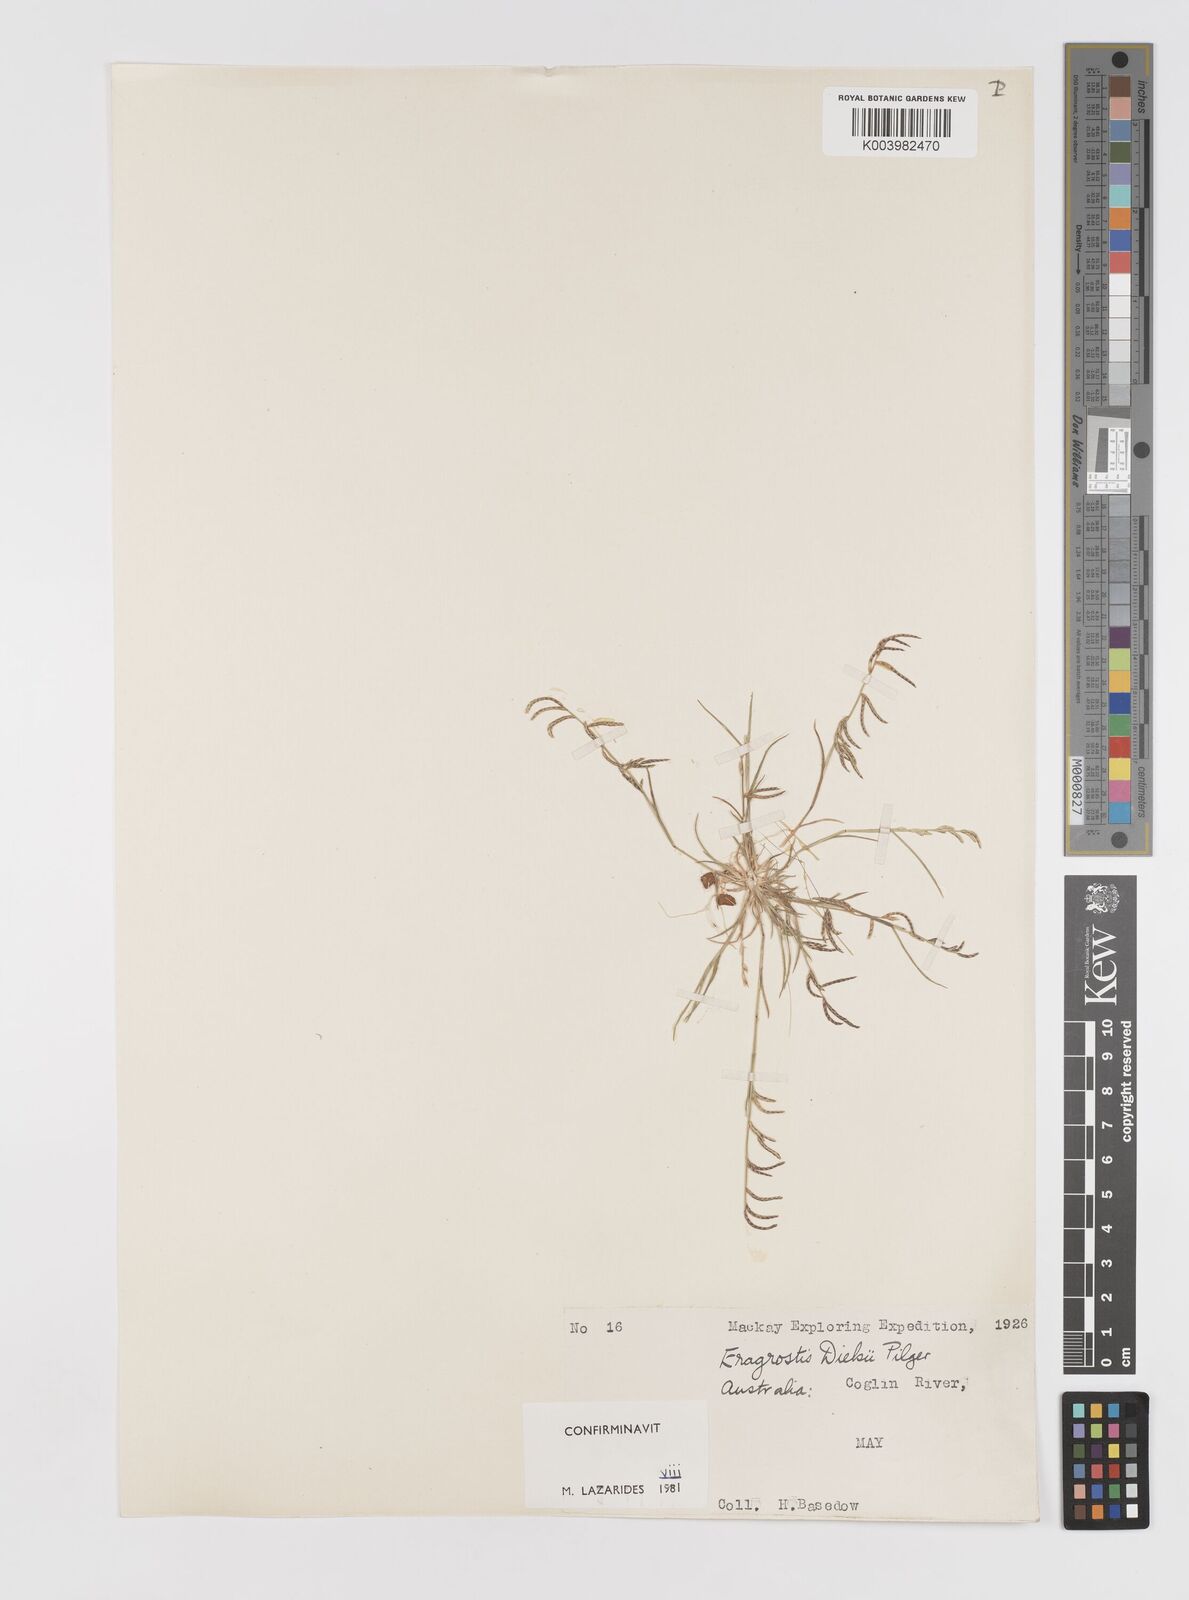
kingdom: Plantae
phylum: Tracheophyta
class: Liliopsida
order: Poales
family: Poaceae
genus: Eragrostis
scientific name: Eragrostis dielsii
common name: Lovegrass
